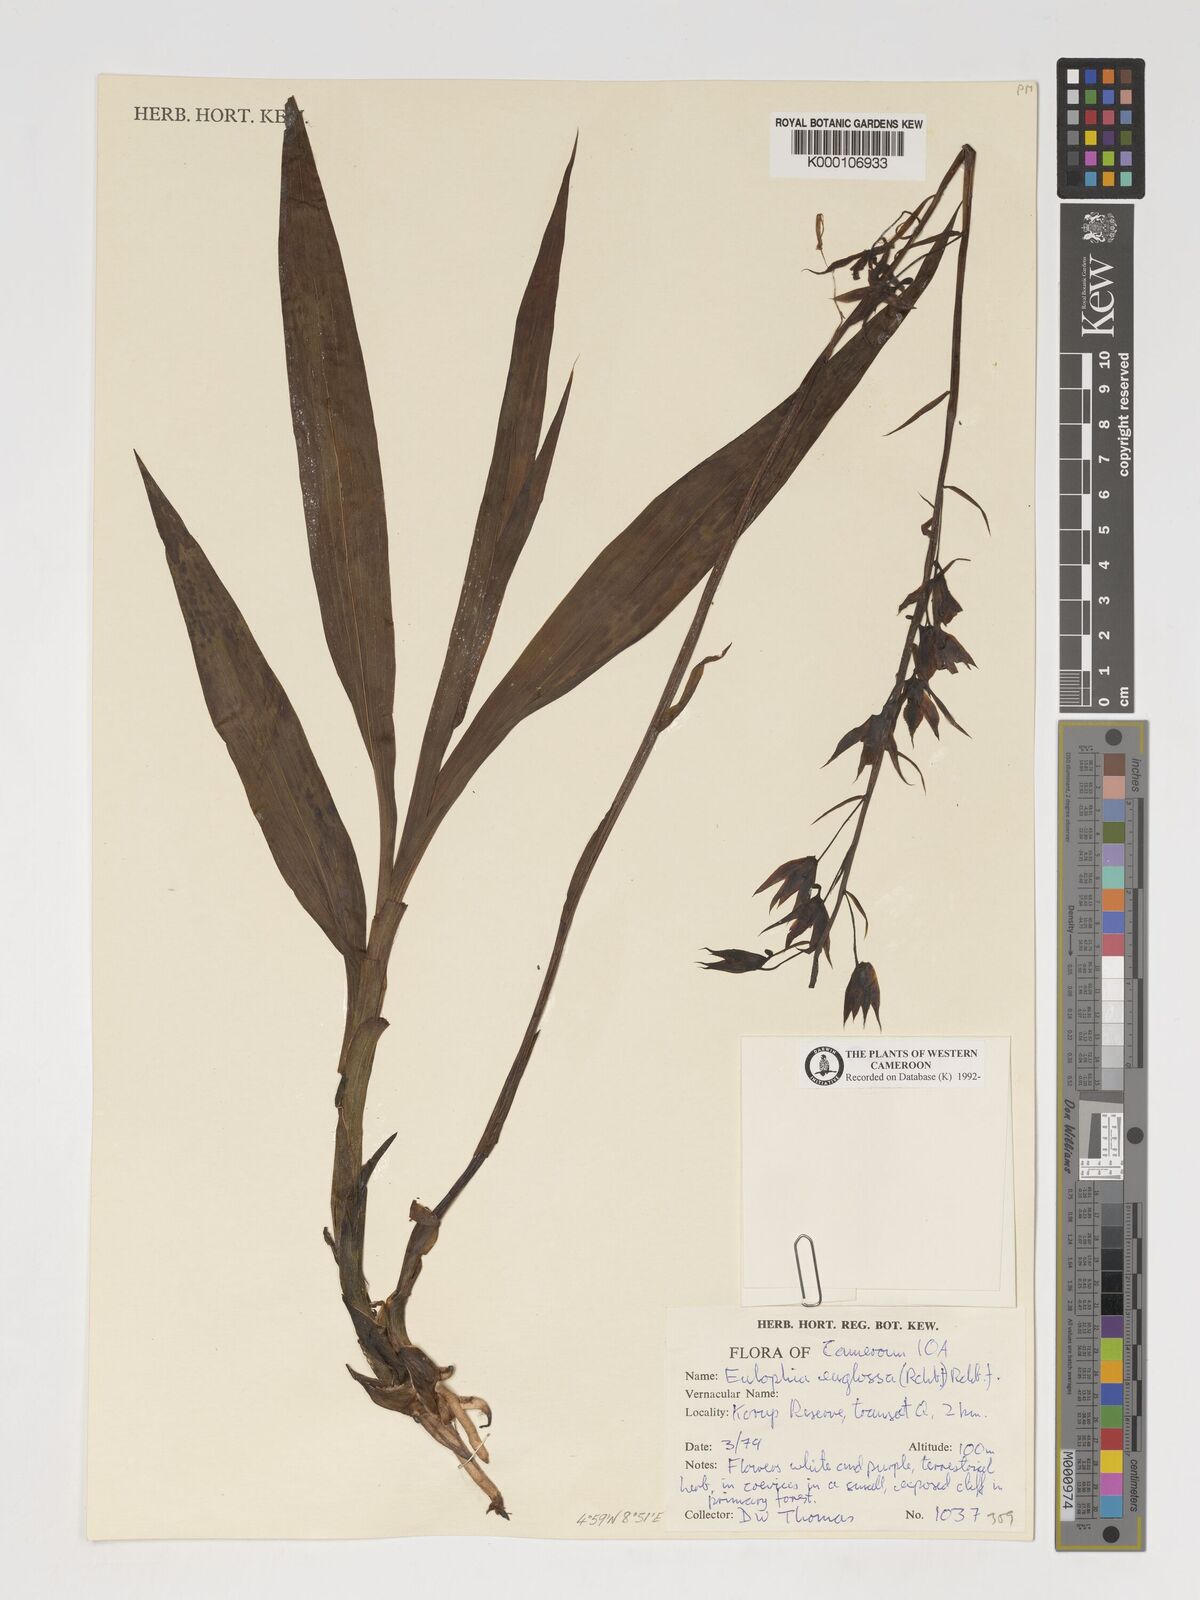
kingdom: Plantae
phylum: Tracheophyta
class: Liliopsida
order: Asparagales
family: Orchidaceae
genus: Eulophia
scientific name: Eulophia
